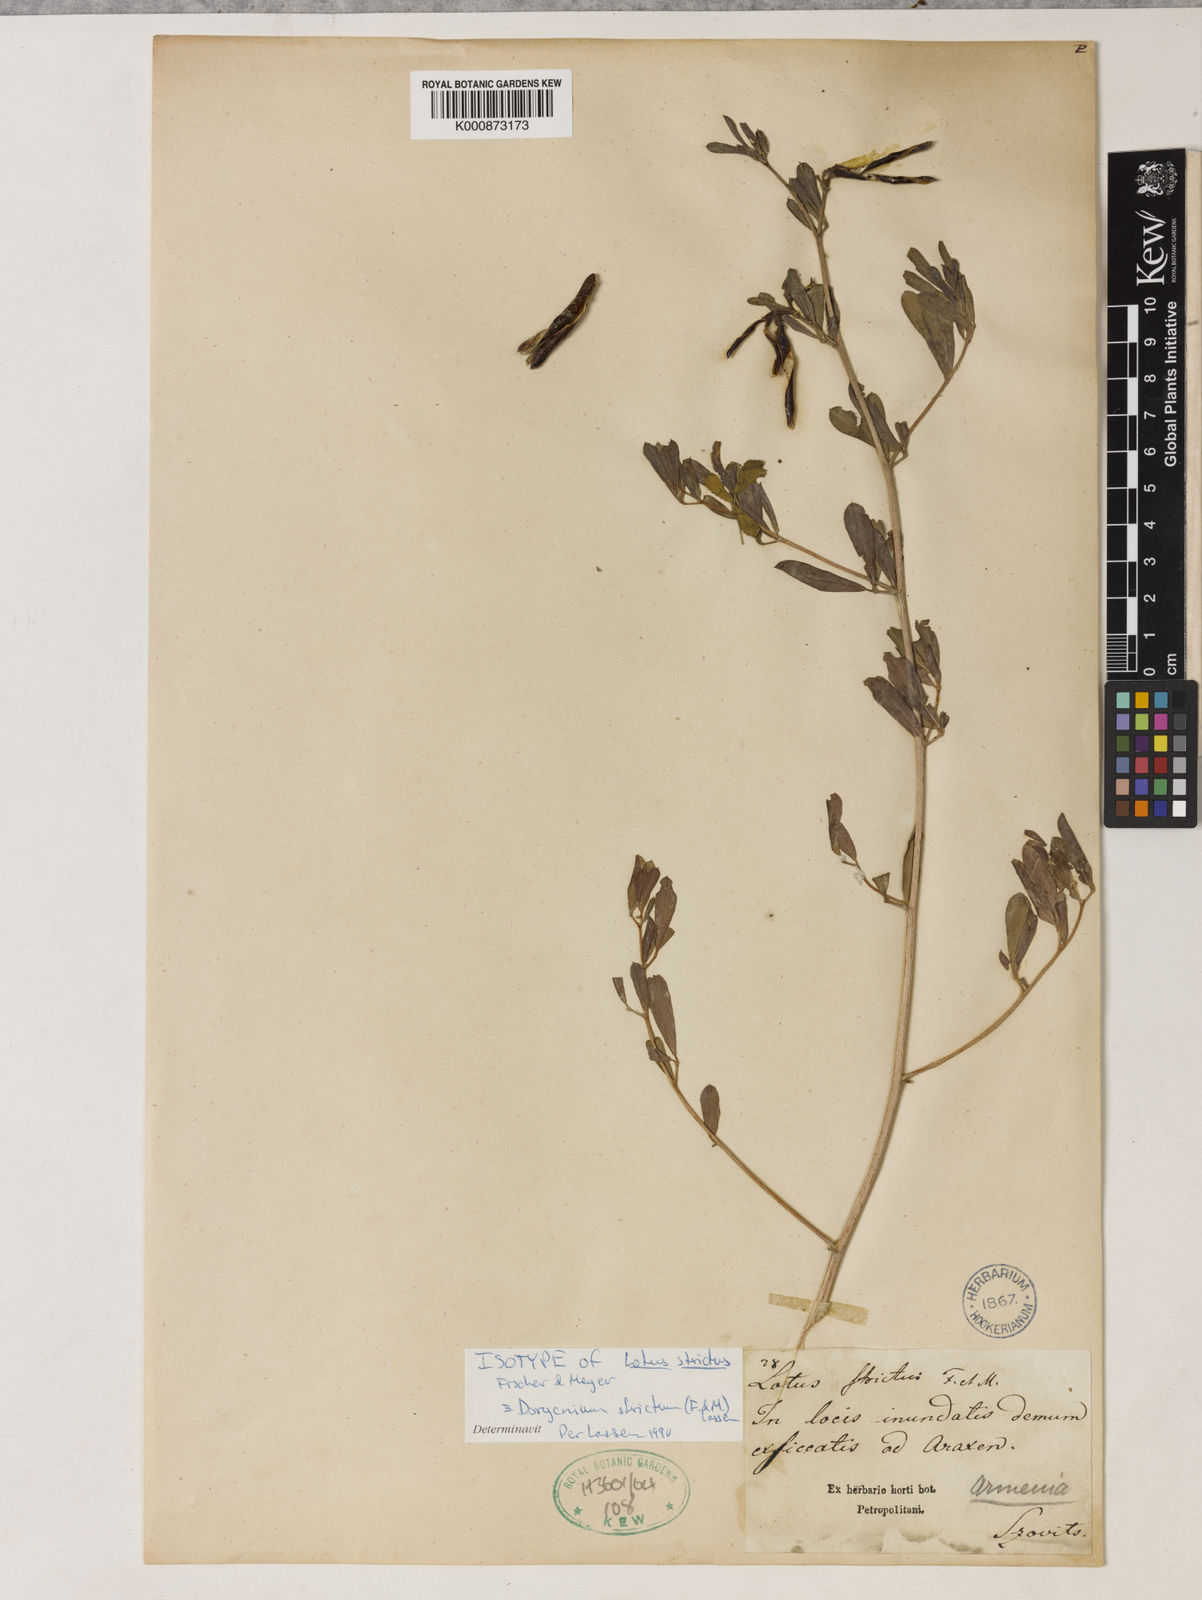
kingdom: Plantae
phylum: Tracheophyta
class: Magnoliopsida
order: Fabales
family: Fabaceae
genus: Lotus
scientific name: Lotus strictus
